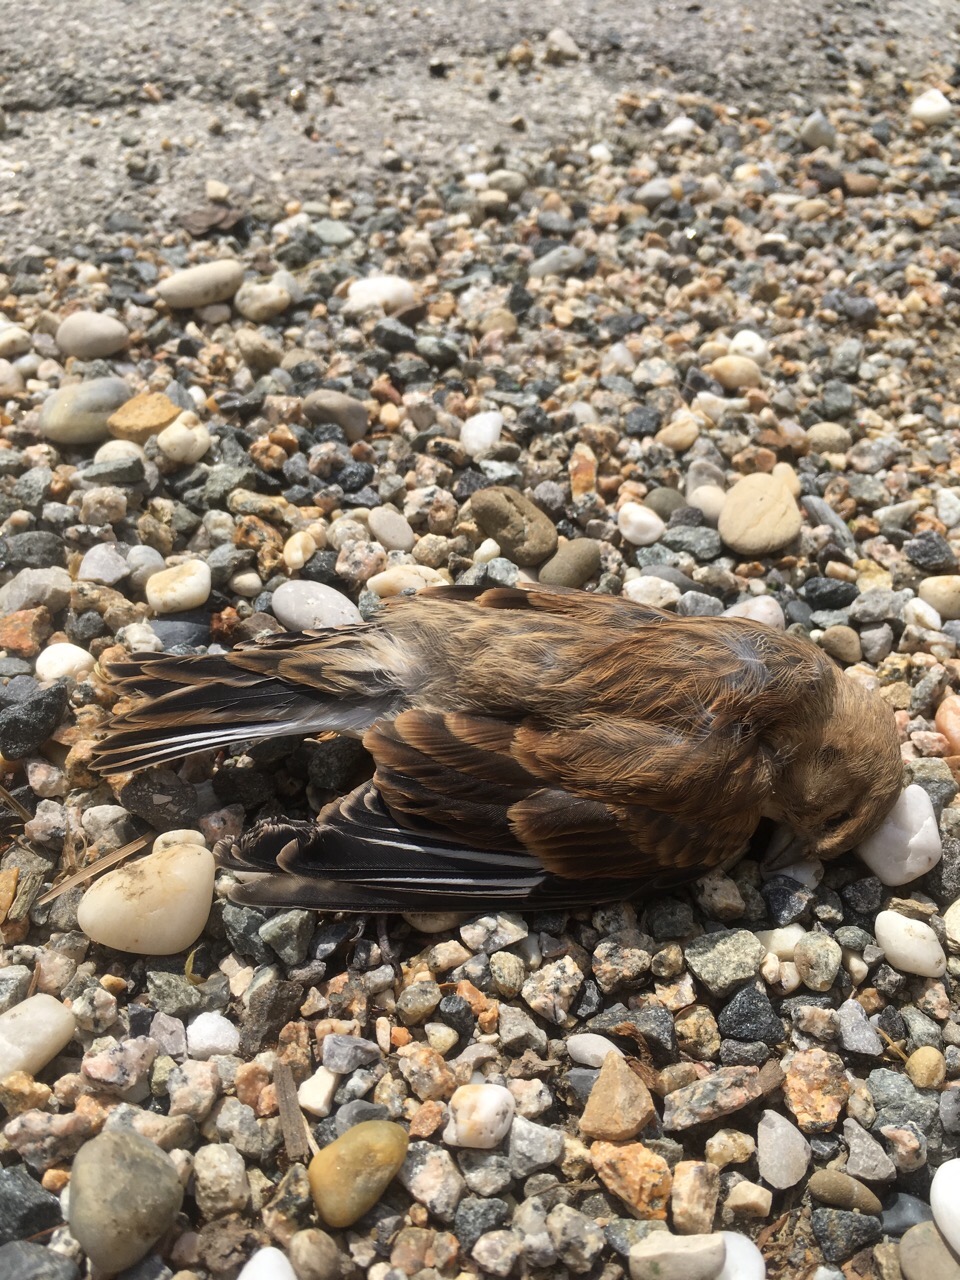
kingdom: Animalia
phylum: Chordata
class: Aves
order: Passeriformes
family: Fringillidae
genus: Linaria
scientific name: Linaria cannabina
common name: Common linnet
